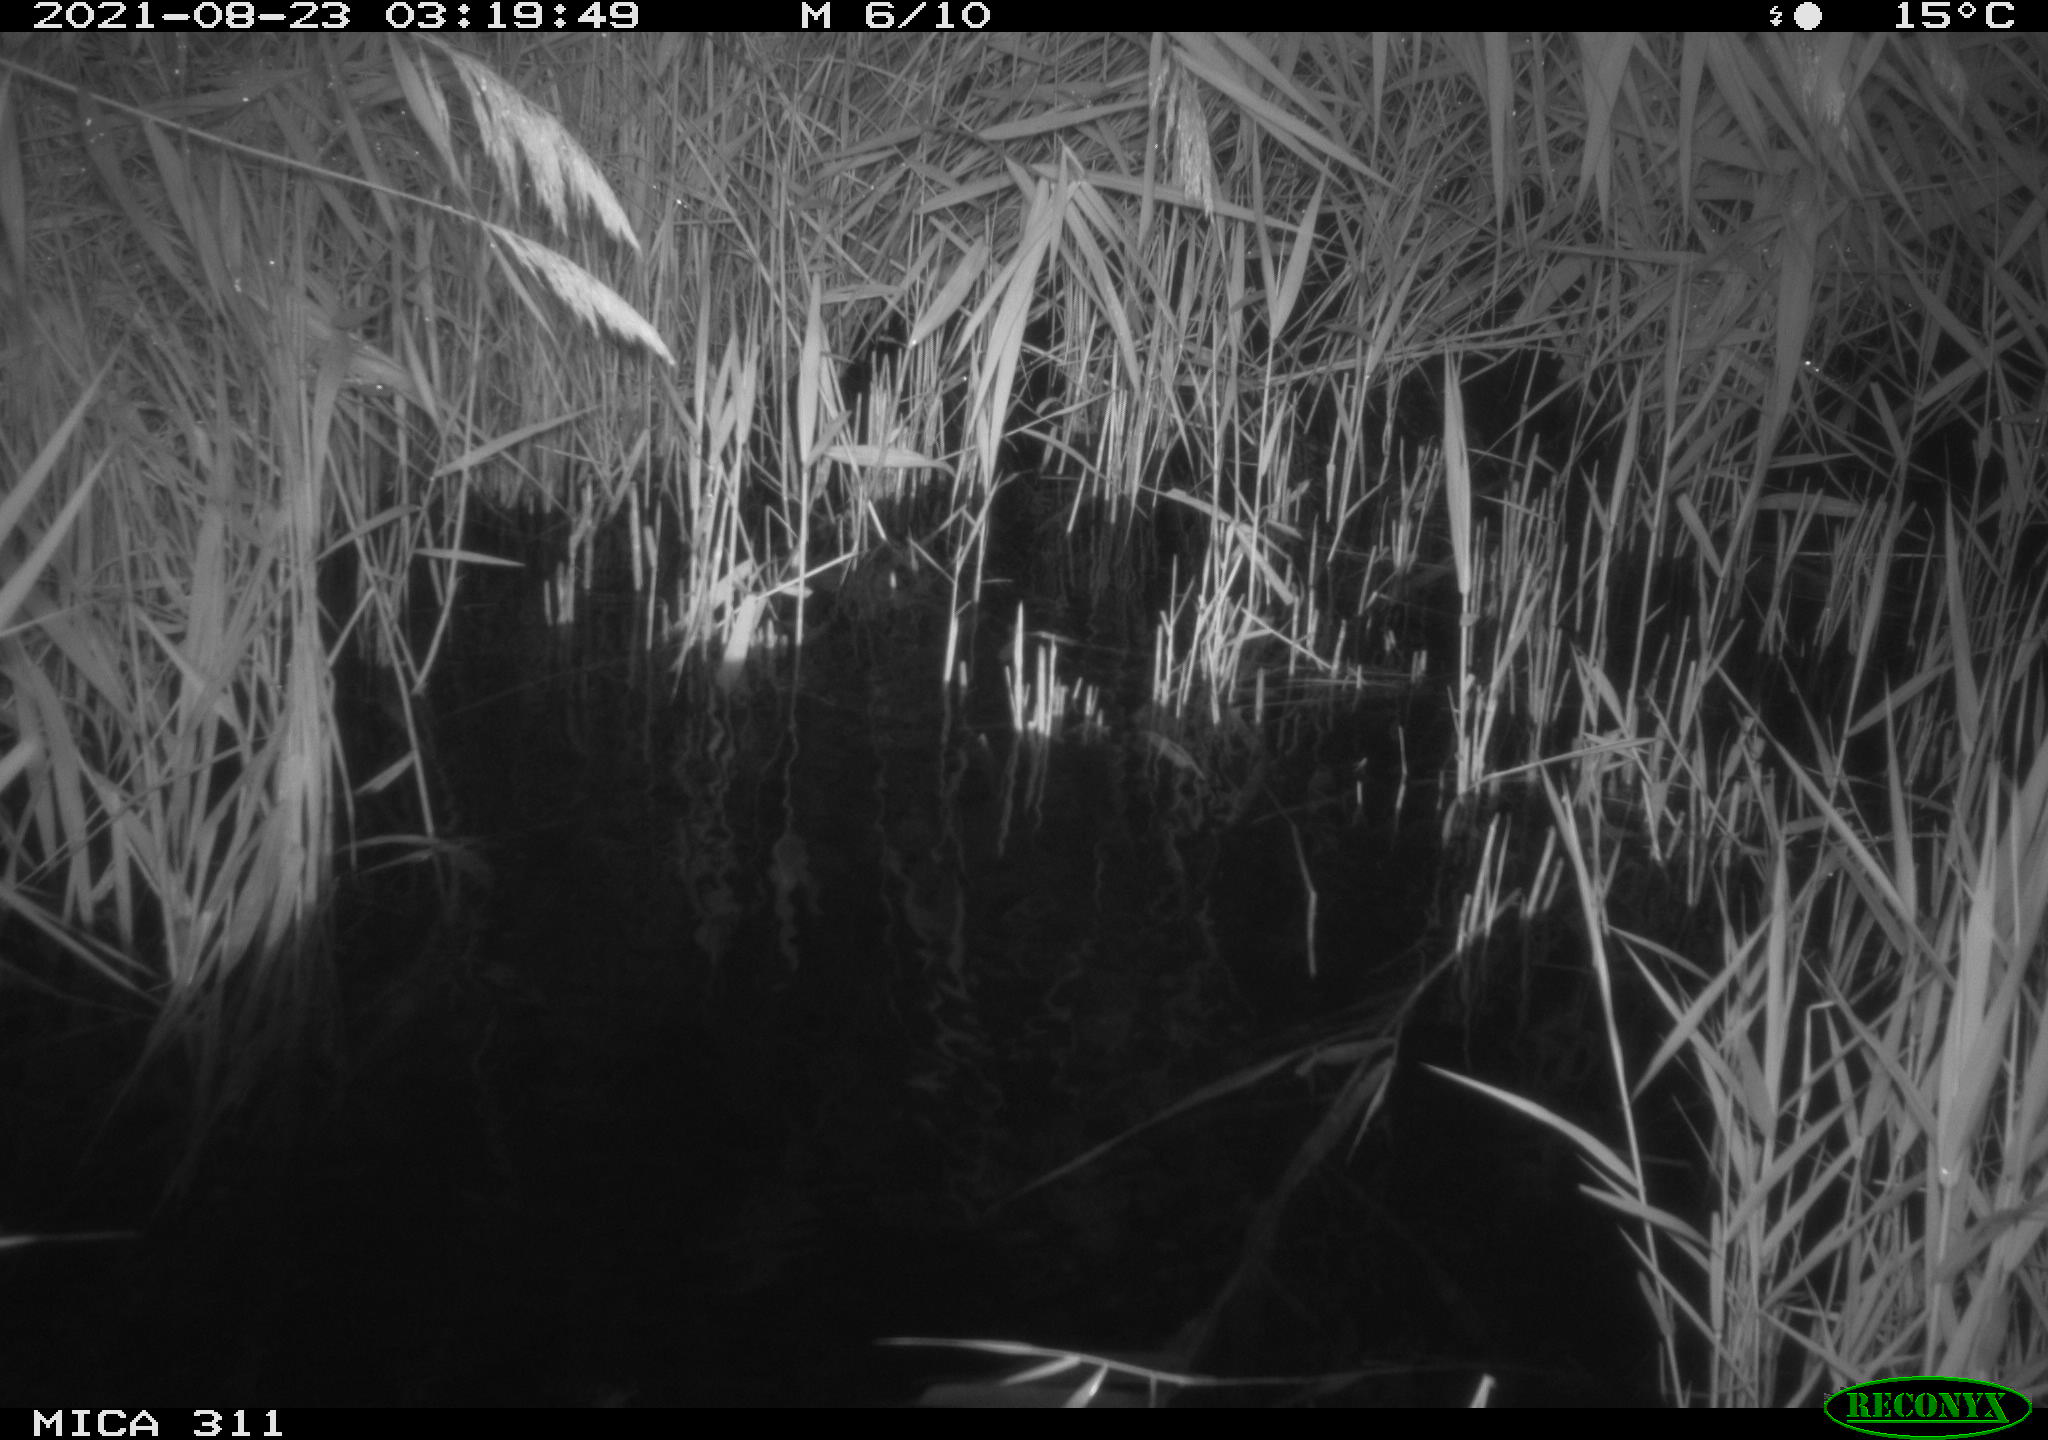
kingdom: Animalia
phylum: Chordata
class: Mammalia
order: Rodentia
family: Muridae
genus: Rattus
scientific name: Rattus norvegicus
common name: Brown rat
